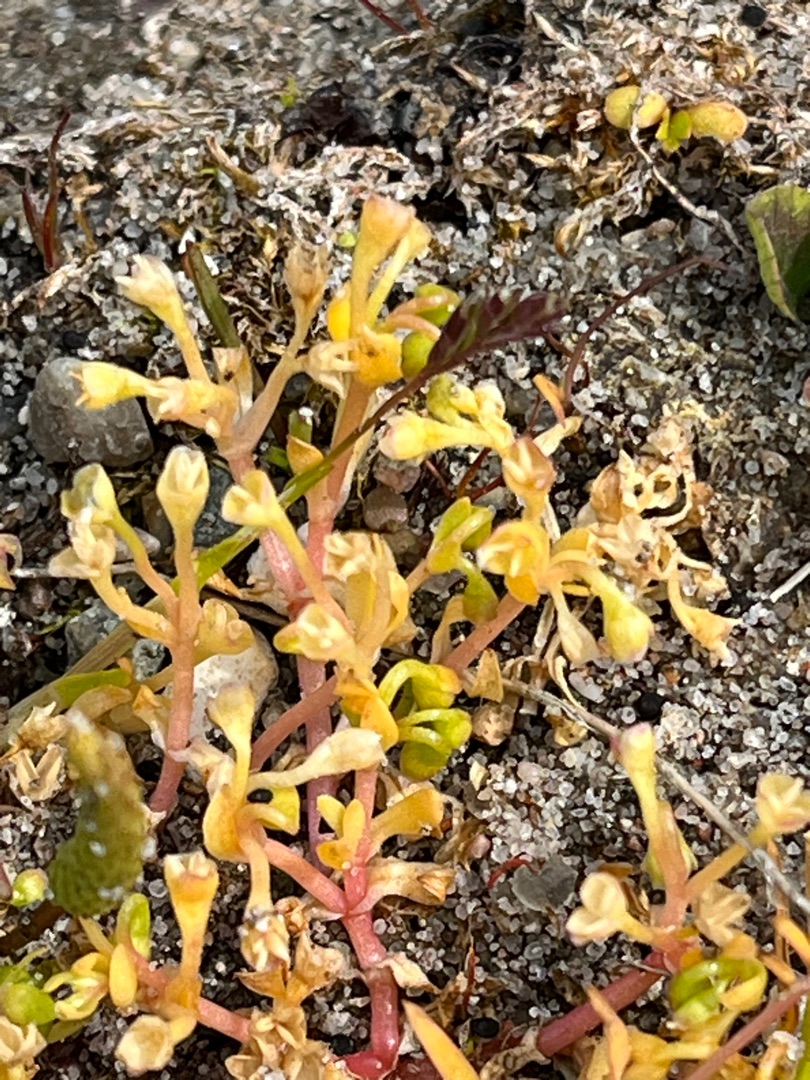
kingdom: Plantae
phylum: Tracheophyta
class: Magnoliopsida
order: Caryophyllales
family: Montiaceae
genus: Montia
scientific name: Montia arvensis
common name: Liden vandarve
